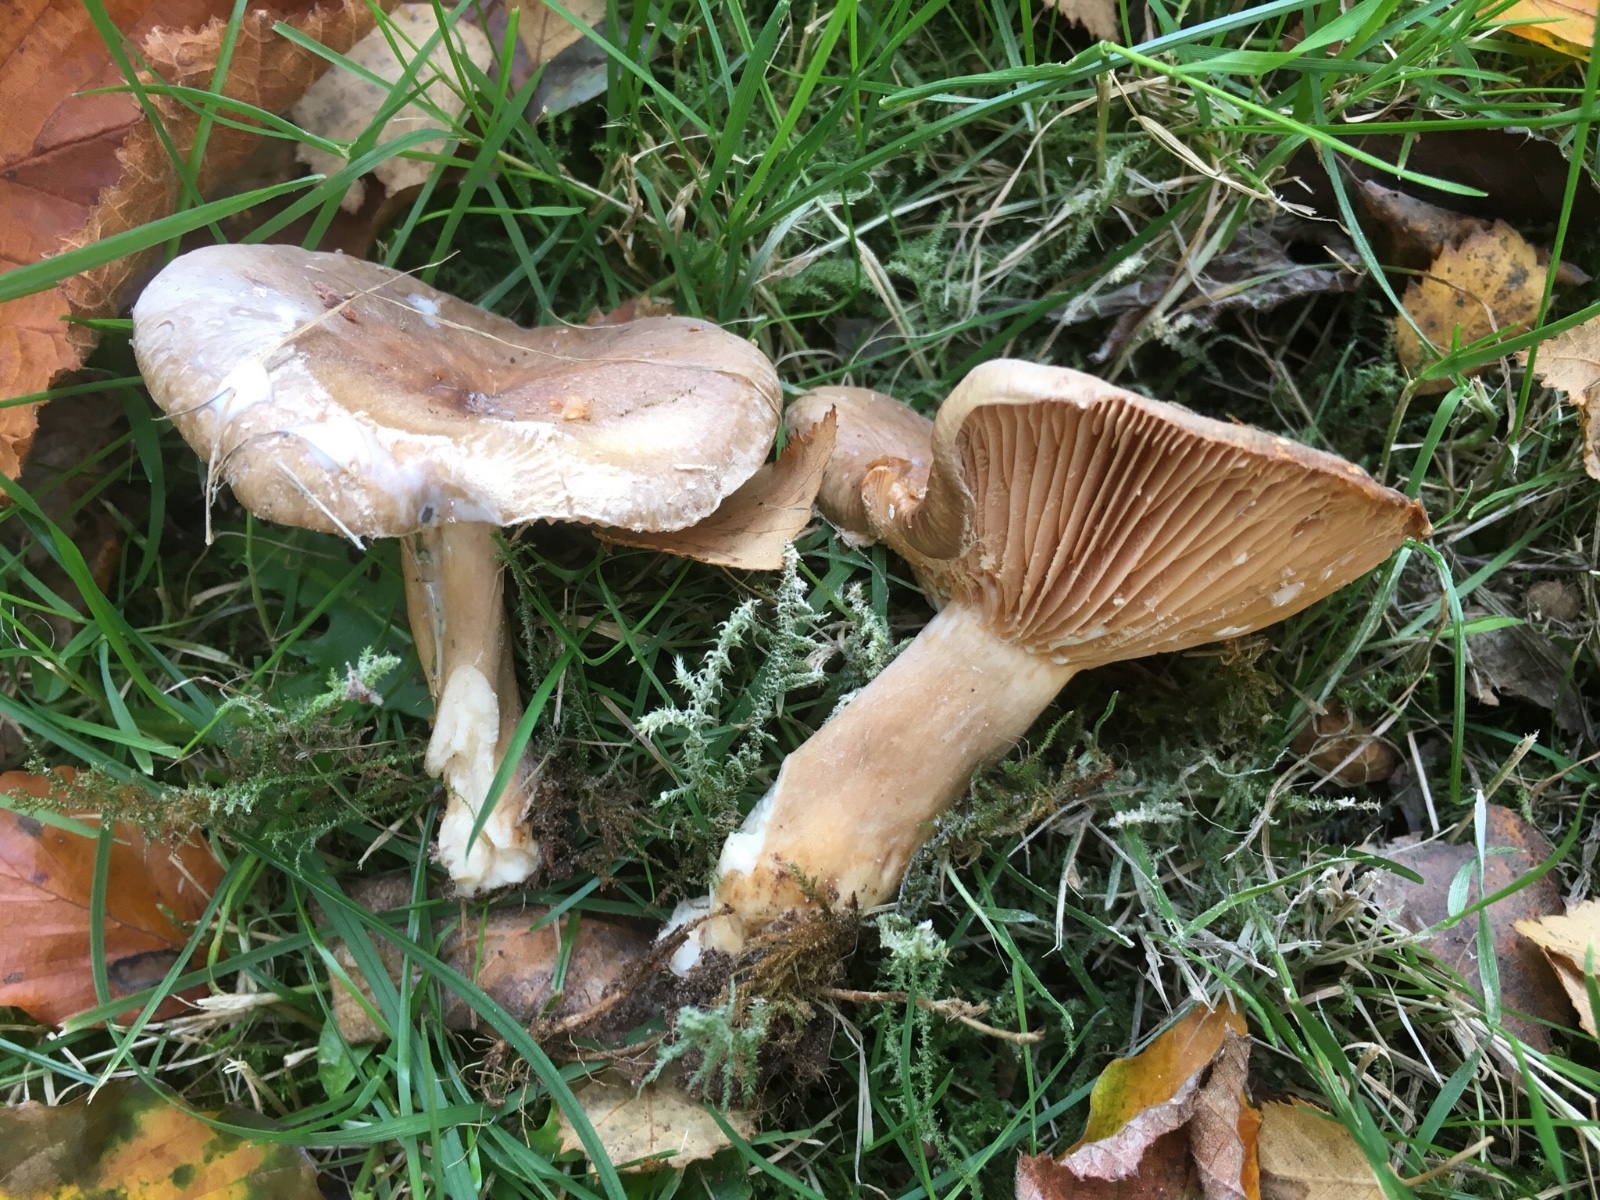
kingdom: Fungi
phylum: Basidiomycota
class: Agaricomycetes
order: Russulales
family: Russulaceae
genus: Lactarius
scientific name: Lactarius pyrogalus
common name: hassel-mælkehat
